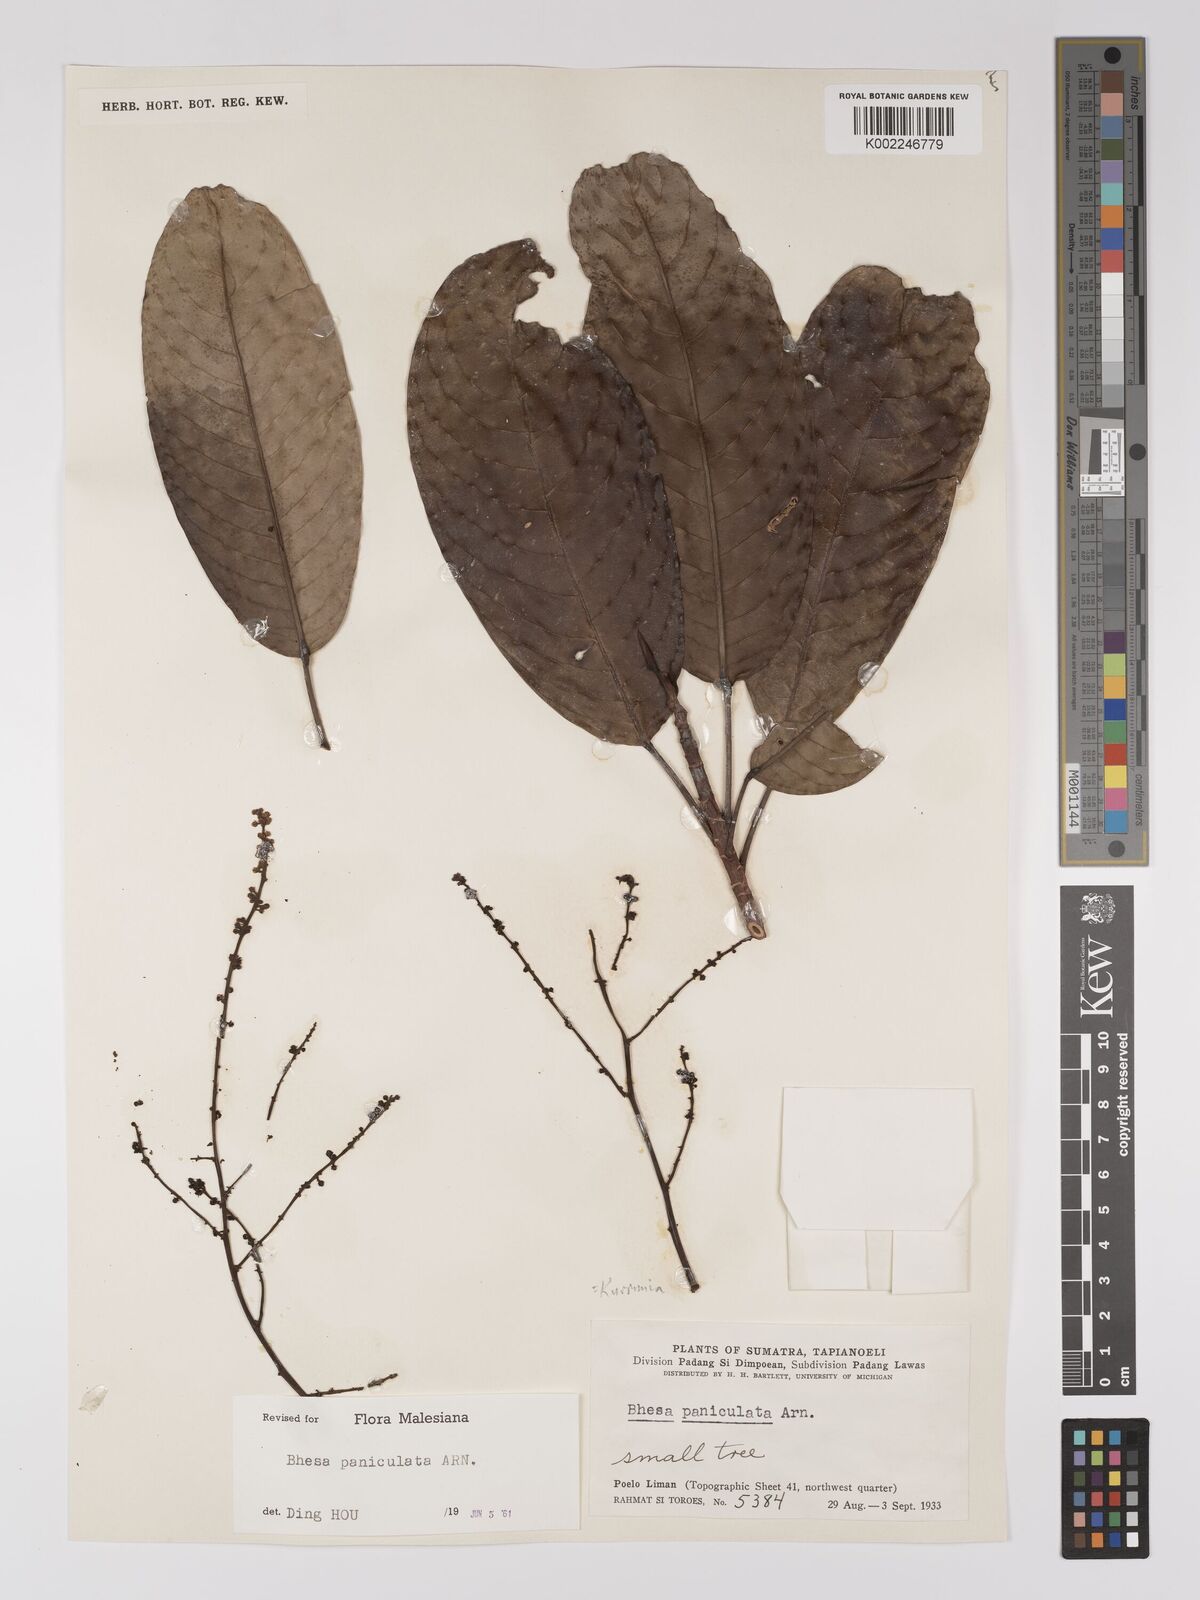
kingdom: Plantae
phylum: Tracheophyta
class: Magnoliopsida
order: Malpighiales
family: Centroplacaceae
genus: Bhesa
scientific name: Bhesa paniculata
